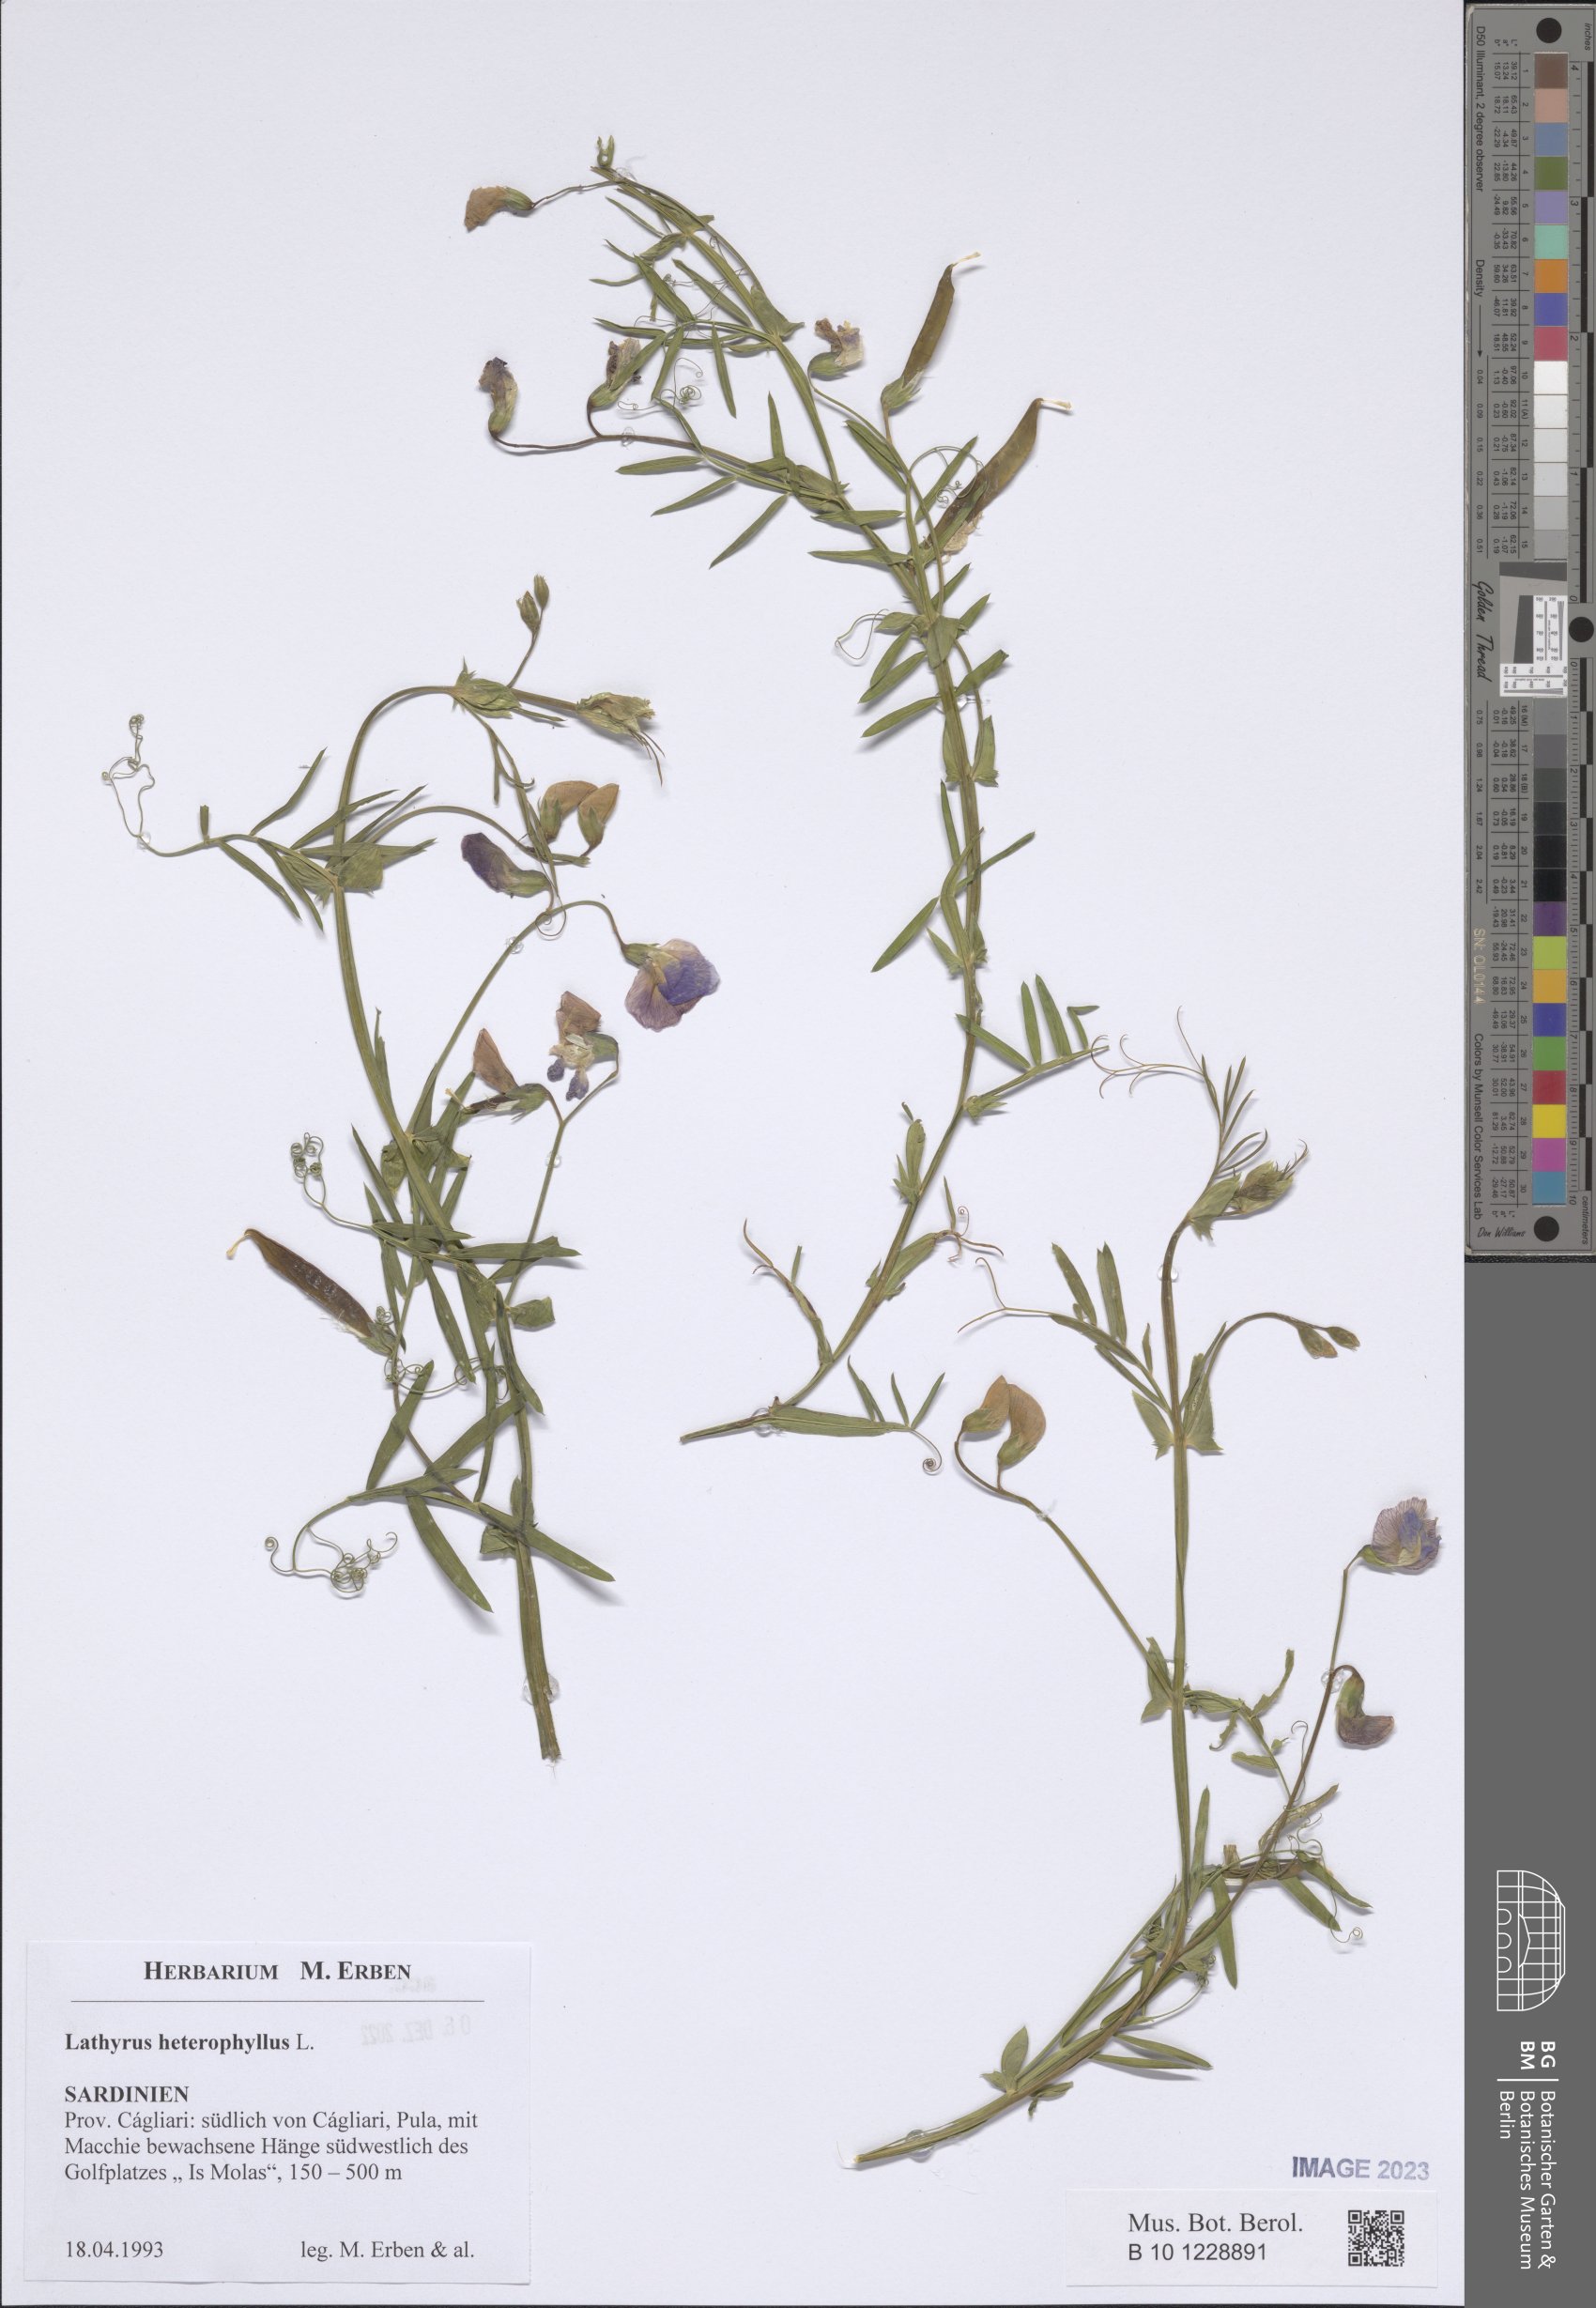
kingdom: Plantae
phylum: Tracheophyta
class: Magnoliopsida
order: Fabales
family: Fabaceae
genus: Lathyrus
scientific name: Lathyrus heterophyllus
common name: Norfolk everlasting-pea
